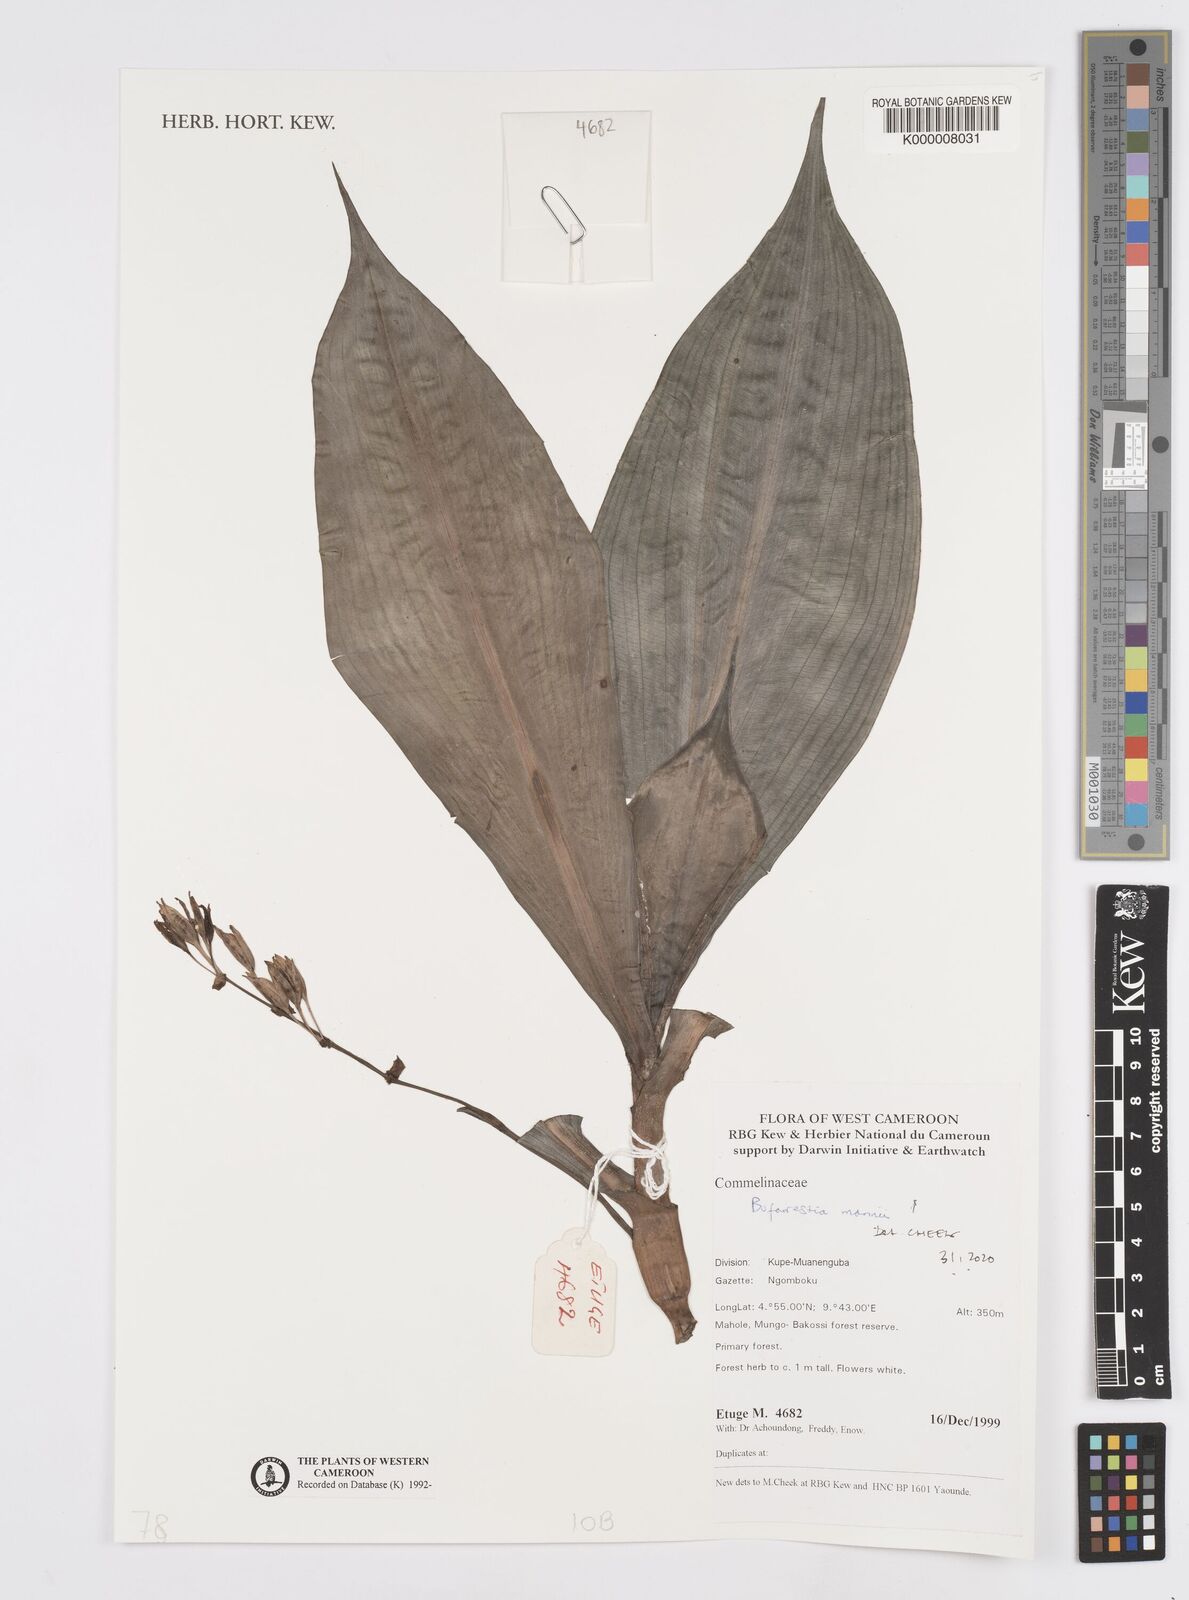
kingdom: Plantae
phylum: Tracheophyta
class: Liliopsida
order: Commelinales
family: Commelinaceae
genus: Buforrestia
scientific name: Buforrestia mannii
